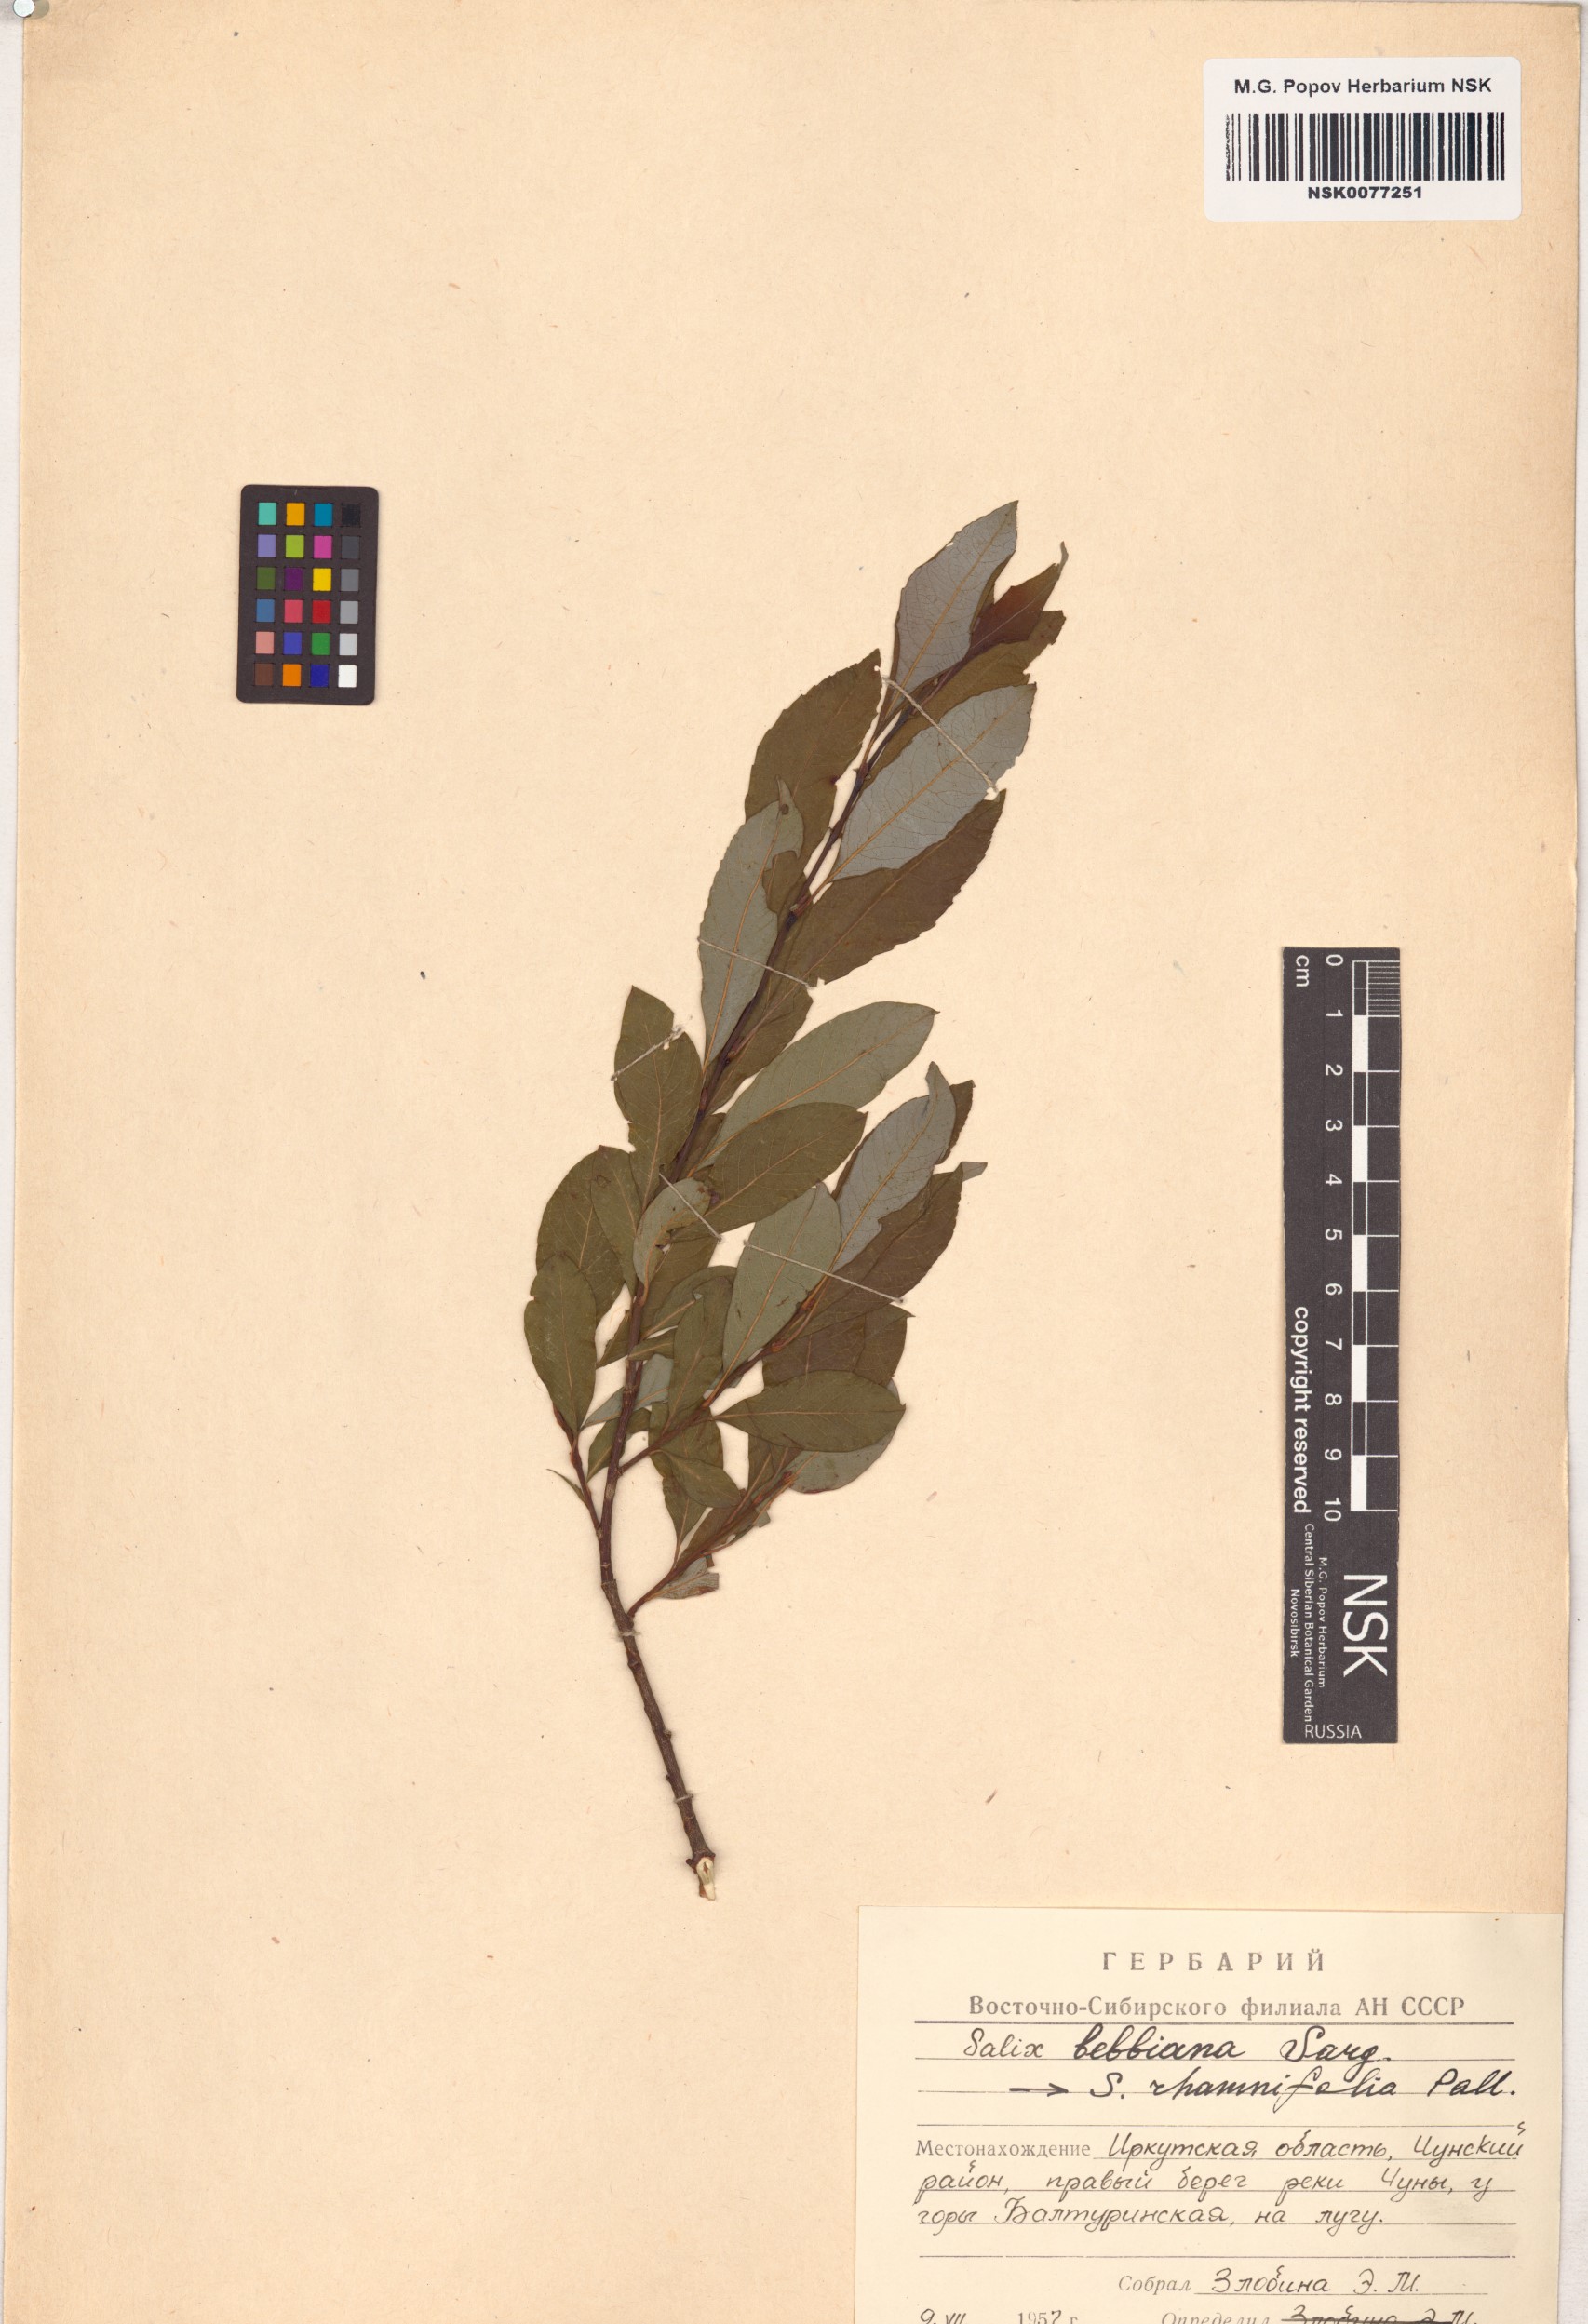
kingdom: Plantae
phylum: Tracheophyta
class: Magnoliopsida
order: Malpighiales
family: Salicaceae
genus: Salix
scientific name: Salix bebbiana
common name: Bebb's willow
